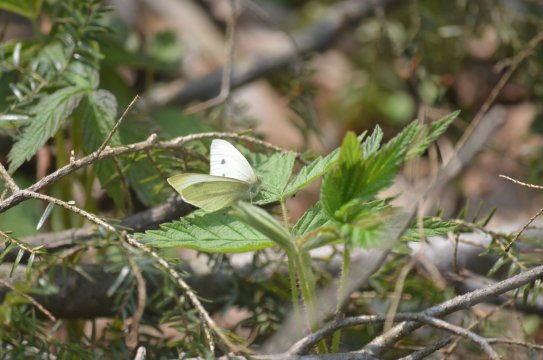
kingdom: Animalia
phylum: Arthropoda
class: Insecta
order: Lepidoptera
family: Pieridae
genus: Pieris
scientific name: Pieris rapae
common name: Cabbage White
